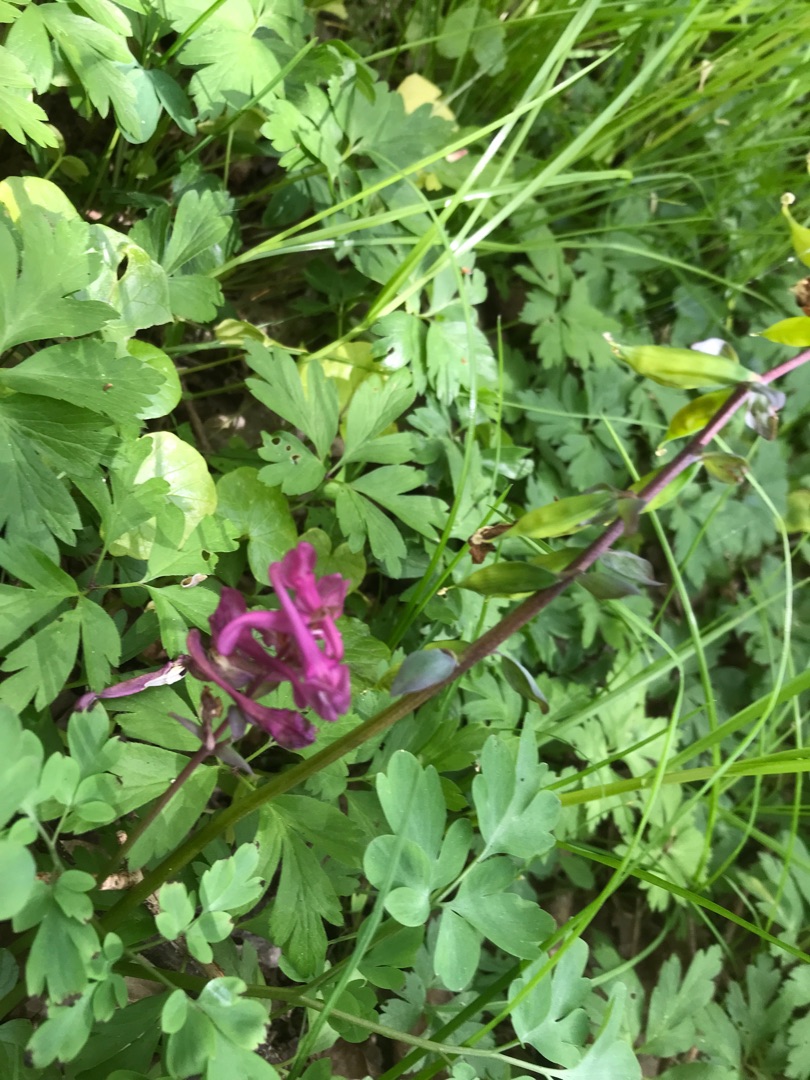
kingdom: Plantae
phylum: Tracheophyta
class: Magnoliopsida
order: Ranunculales
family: Papaveraceae
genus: Corydalis
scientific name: Corydalis cava
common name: Hulrodet lærkespore
